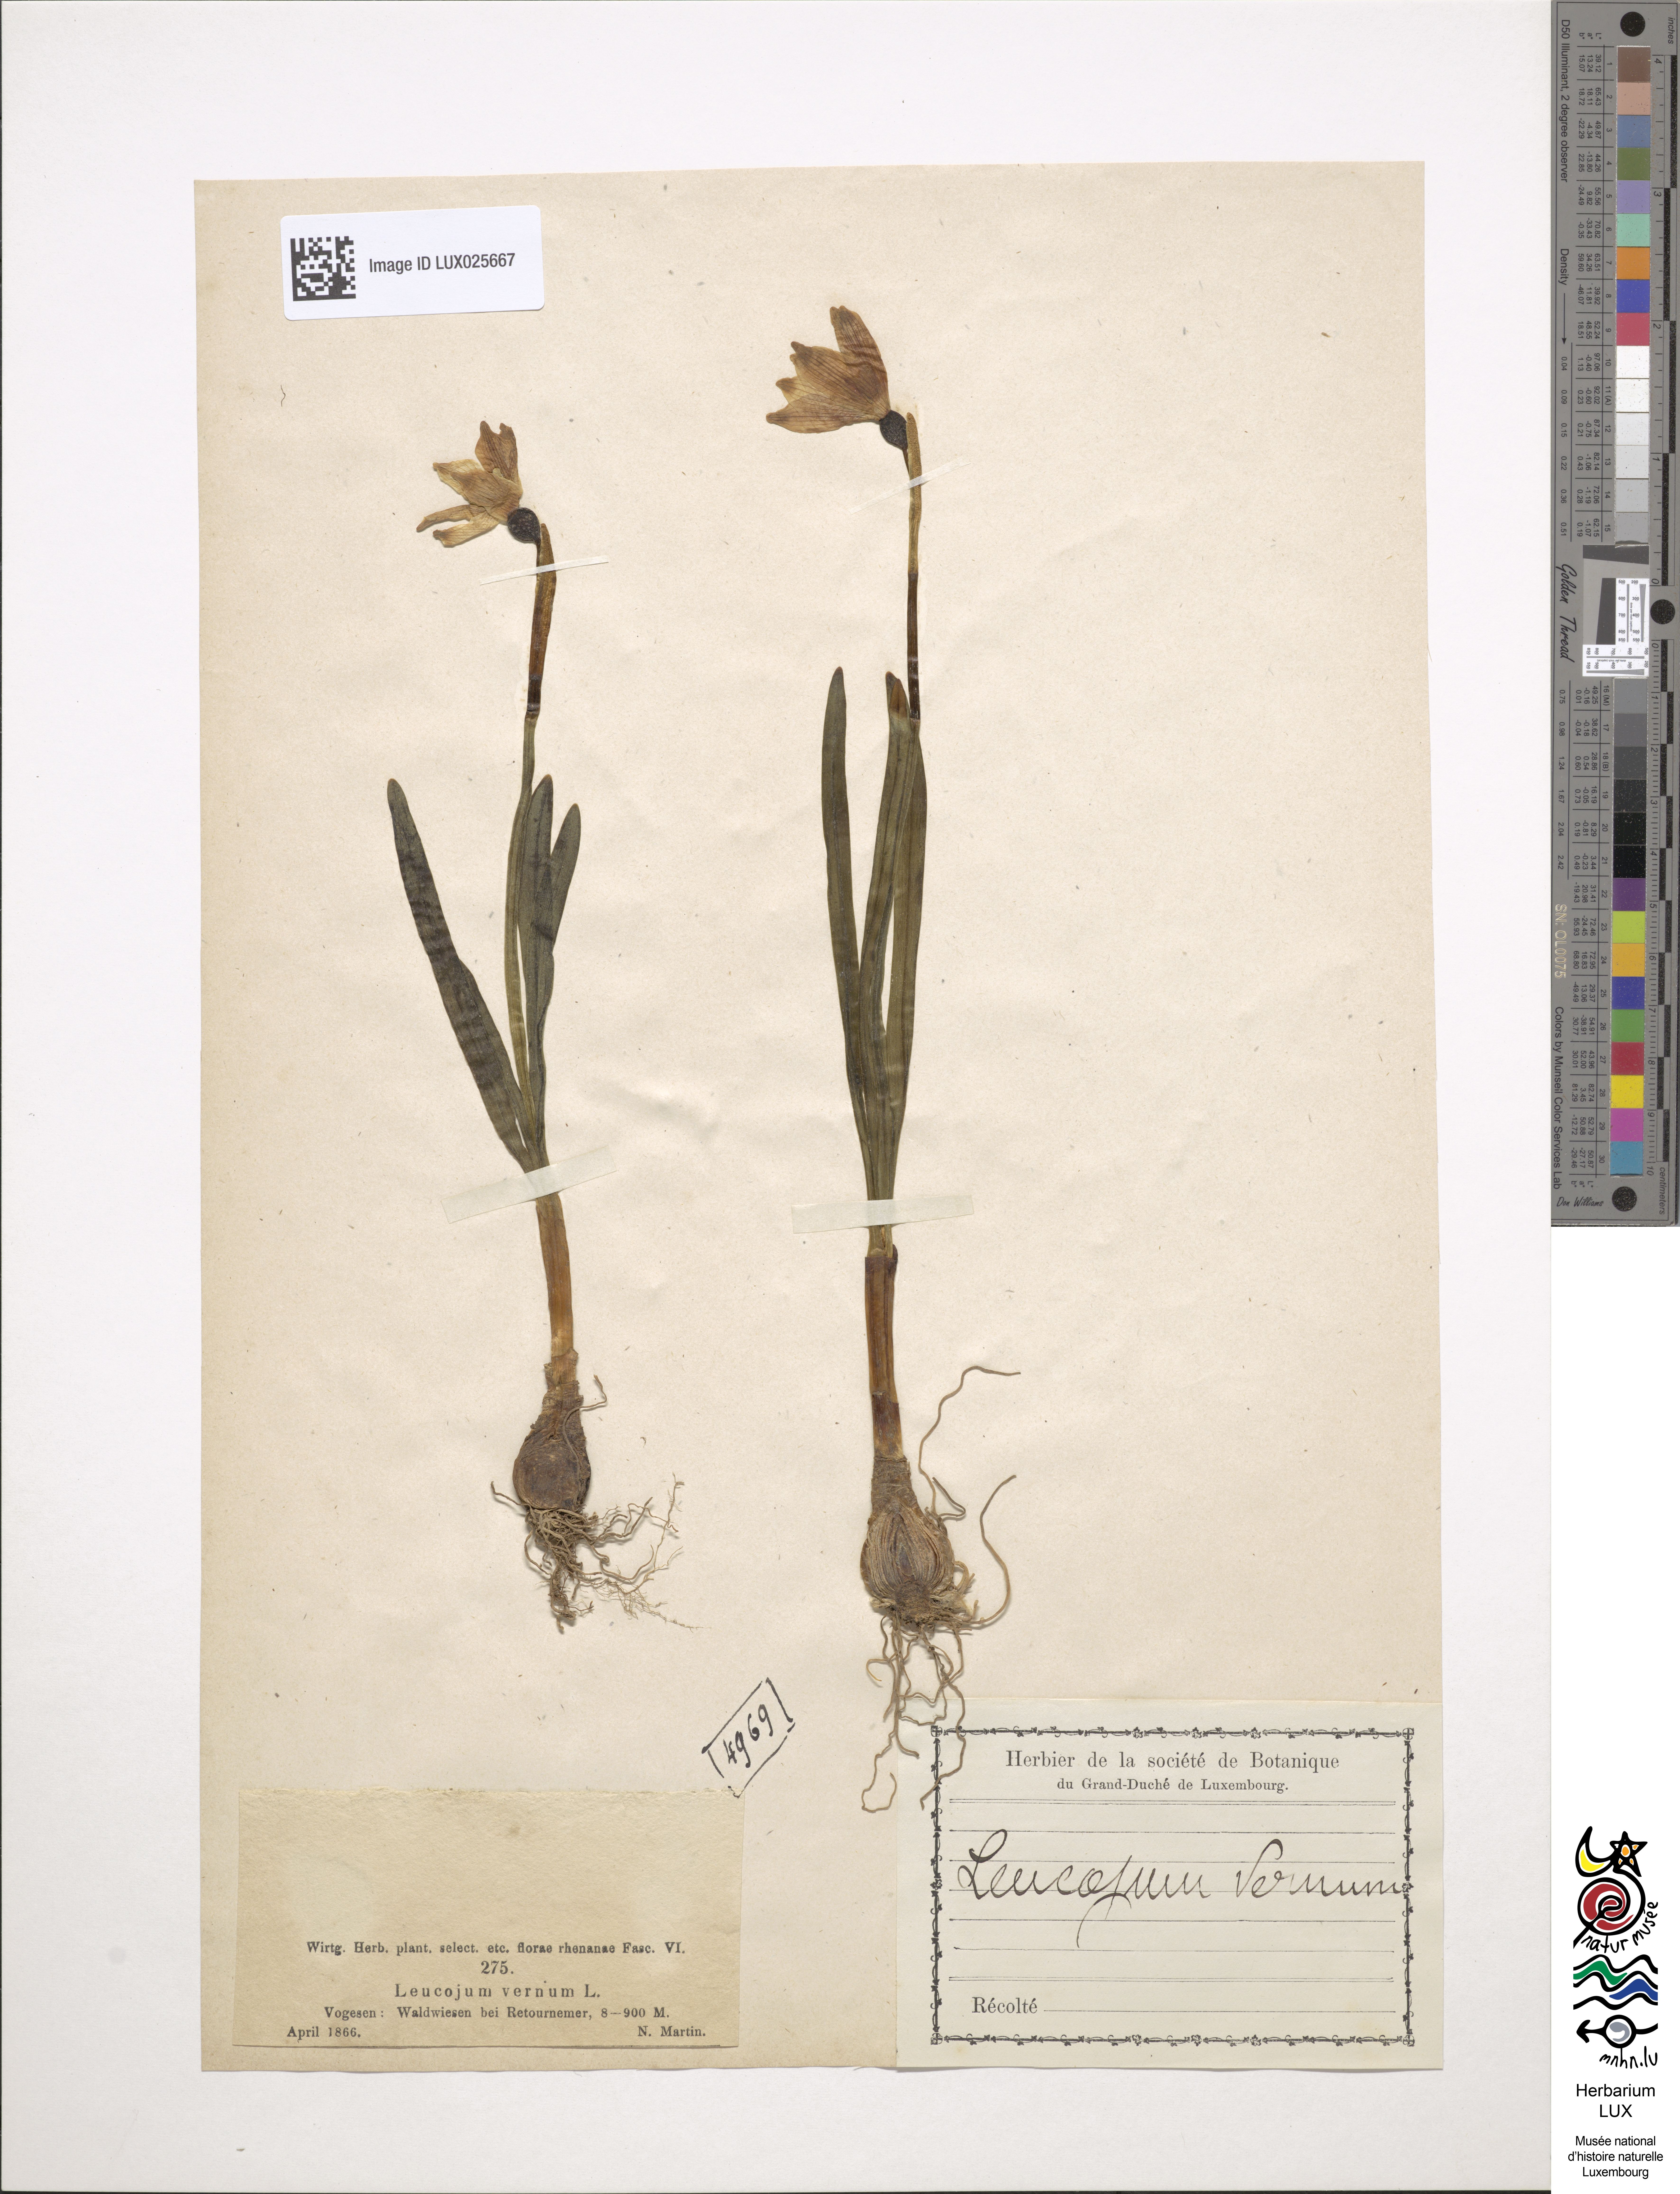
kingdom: Plantae
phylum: Tracheophyta
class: Liliopsida
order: Asparagales
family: Amaryllidaceae
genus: Leucojum
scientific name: Leucojum vernum
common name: Spring snowflake
